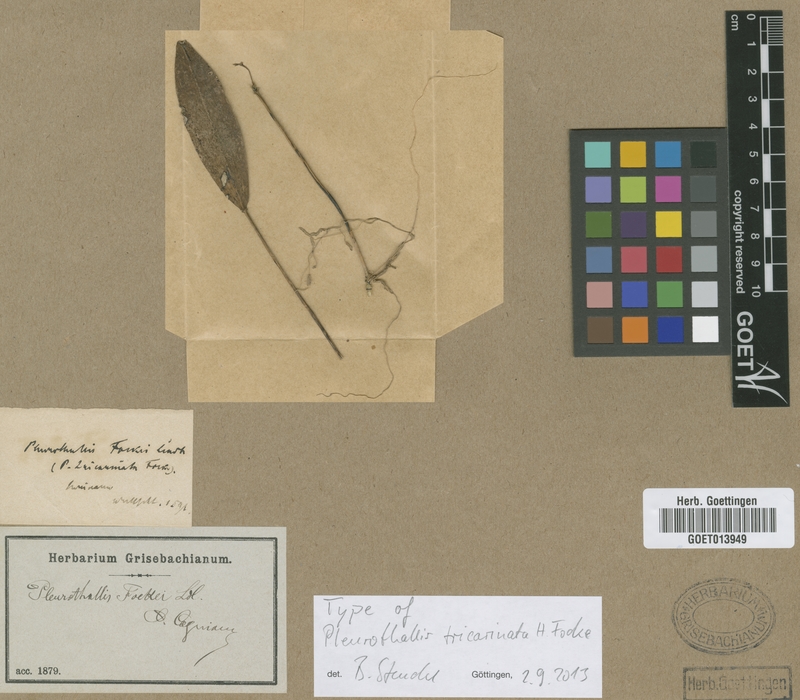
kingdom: Plantae
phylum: Tracheophyta
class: Liliopsida
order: Asparagales
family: Orchidaceae
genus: Acianthera
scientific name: Acianthera fockei
